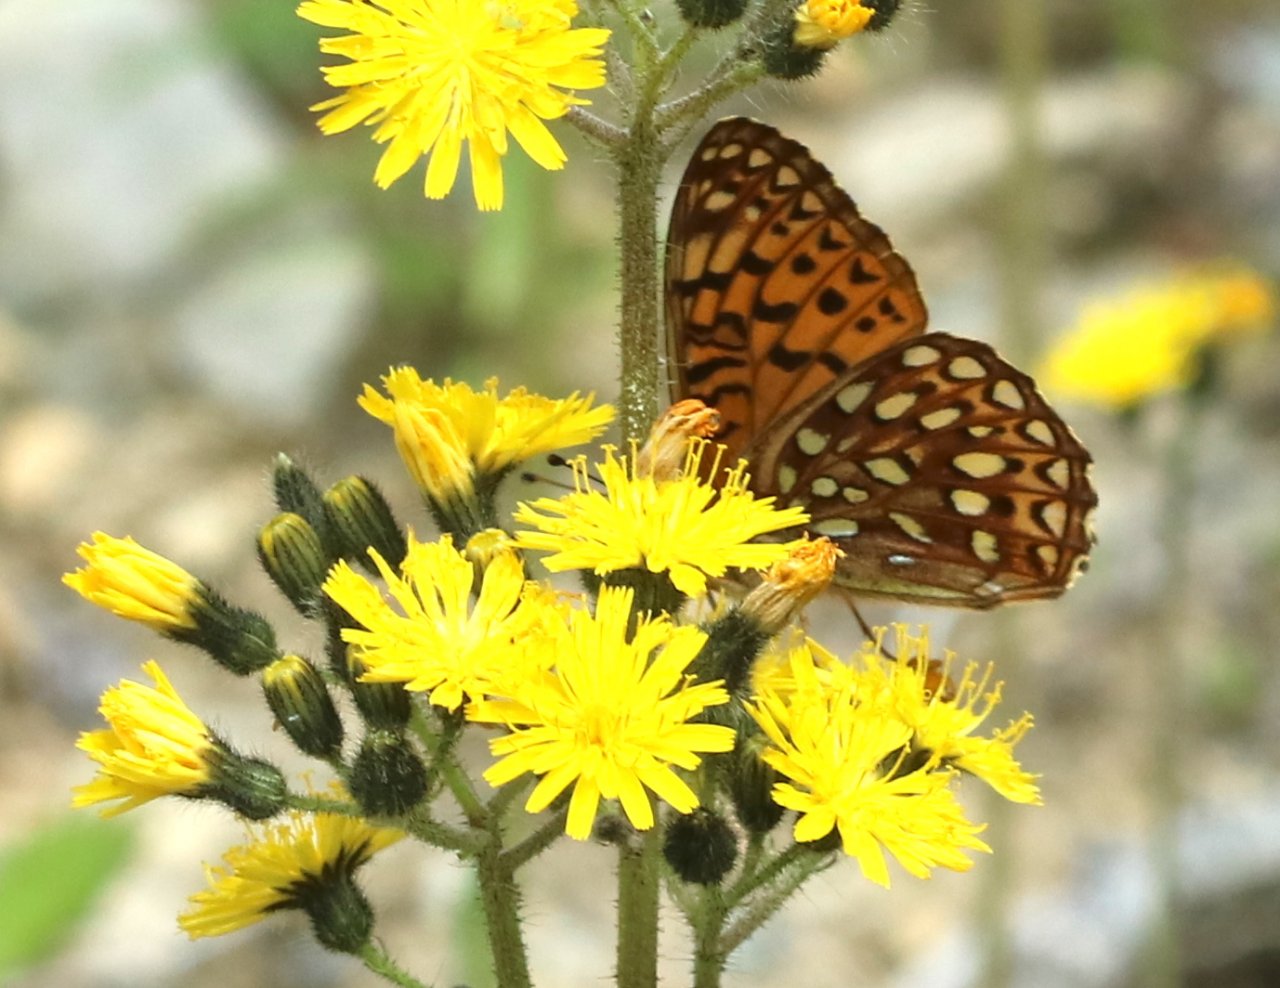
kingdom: Animalia
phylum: Arthropoda
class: Insecta
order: Lepidoptera
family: Nymphalidae
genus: Speyeria
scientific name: Speyeria atlantis
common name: Atlantis Fritillary
